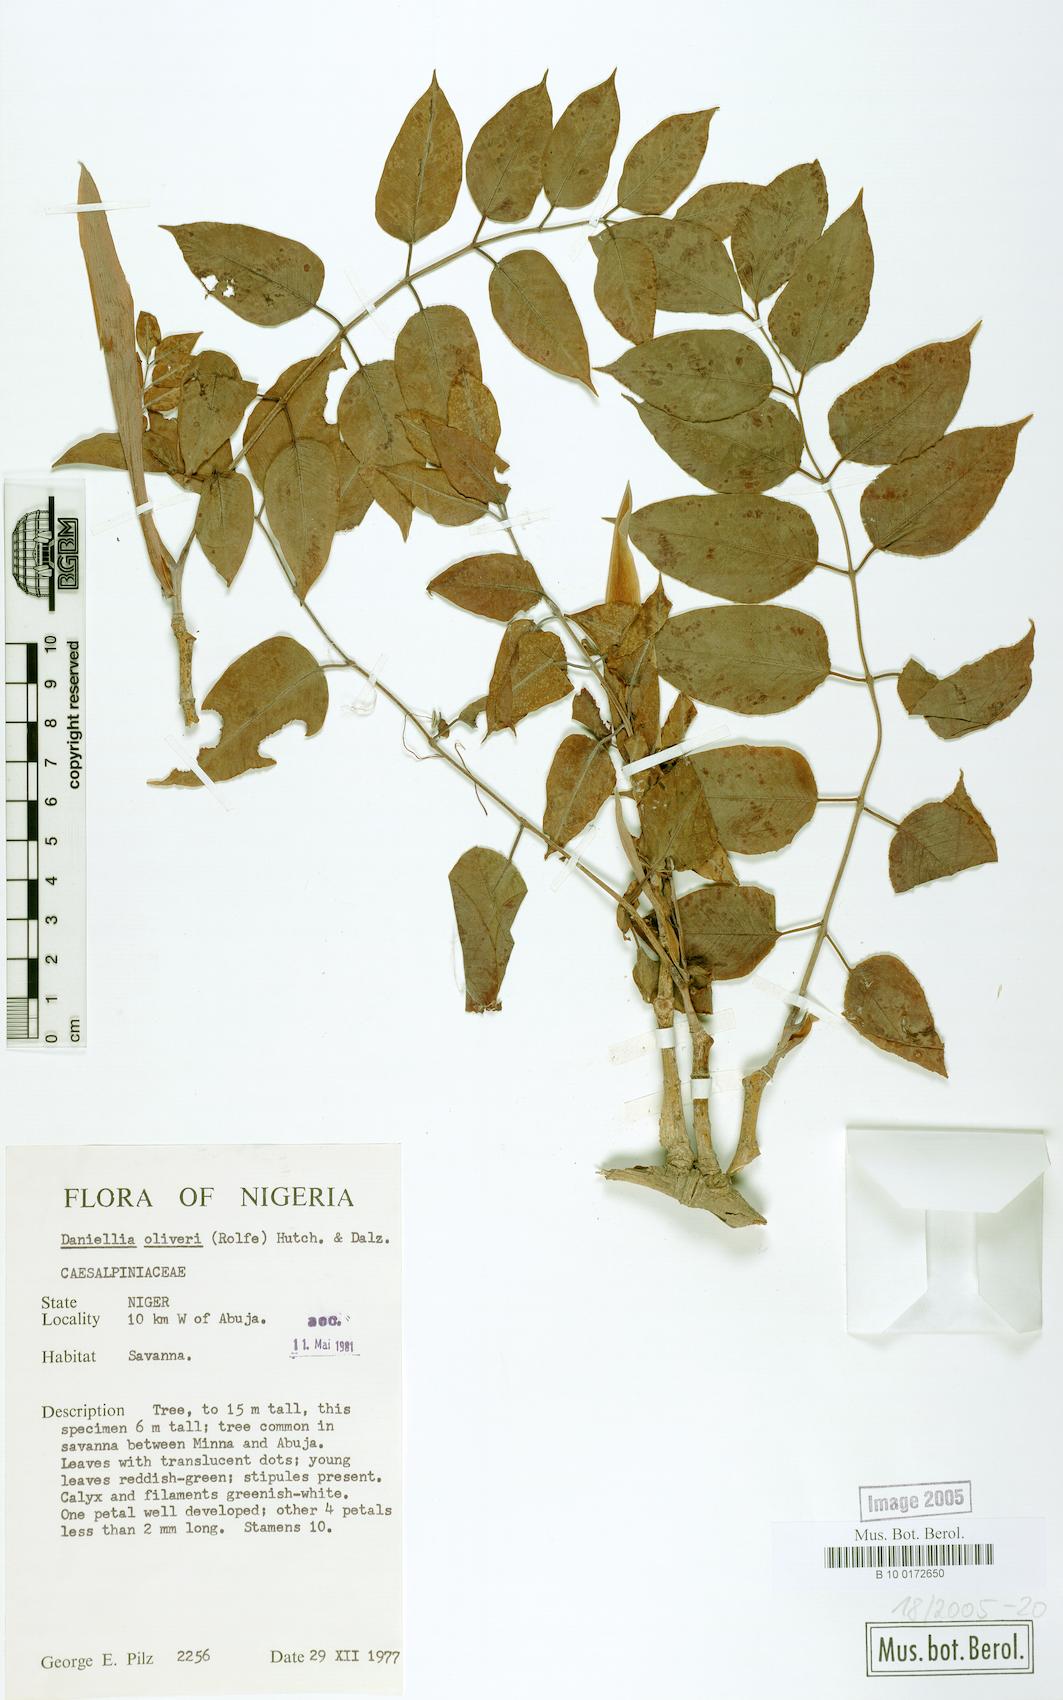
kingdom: Plantae
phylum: Tracheophyta
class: Magnoliopsida
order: Fabales
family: Fabaceae
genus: Daniellia
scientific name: Daniellia oliveri
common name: African copaiba balsamtree
